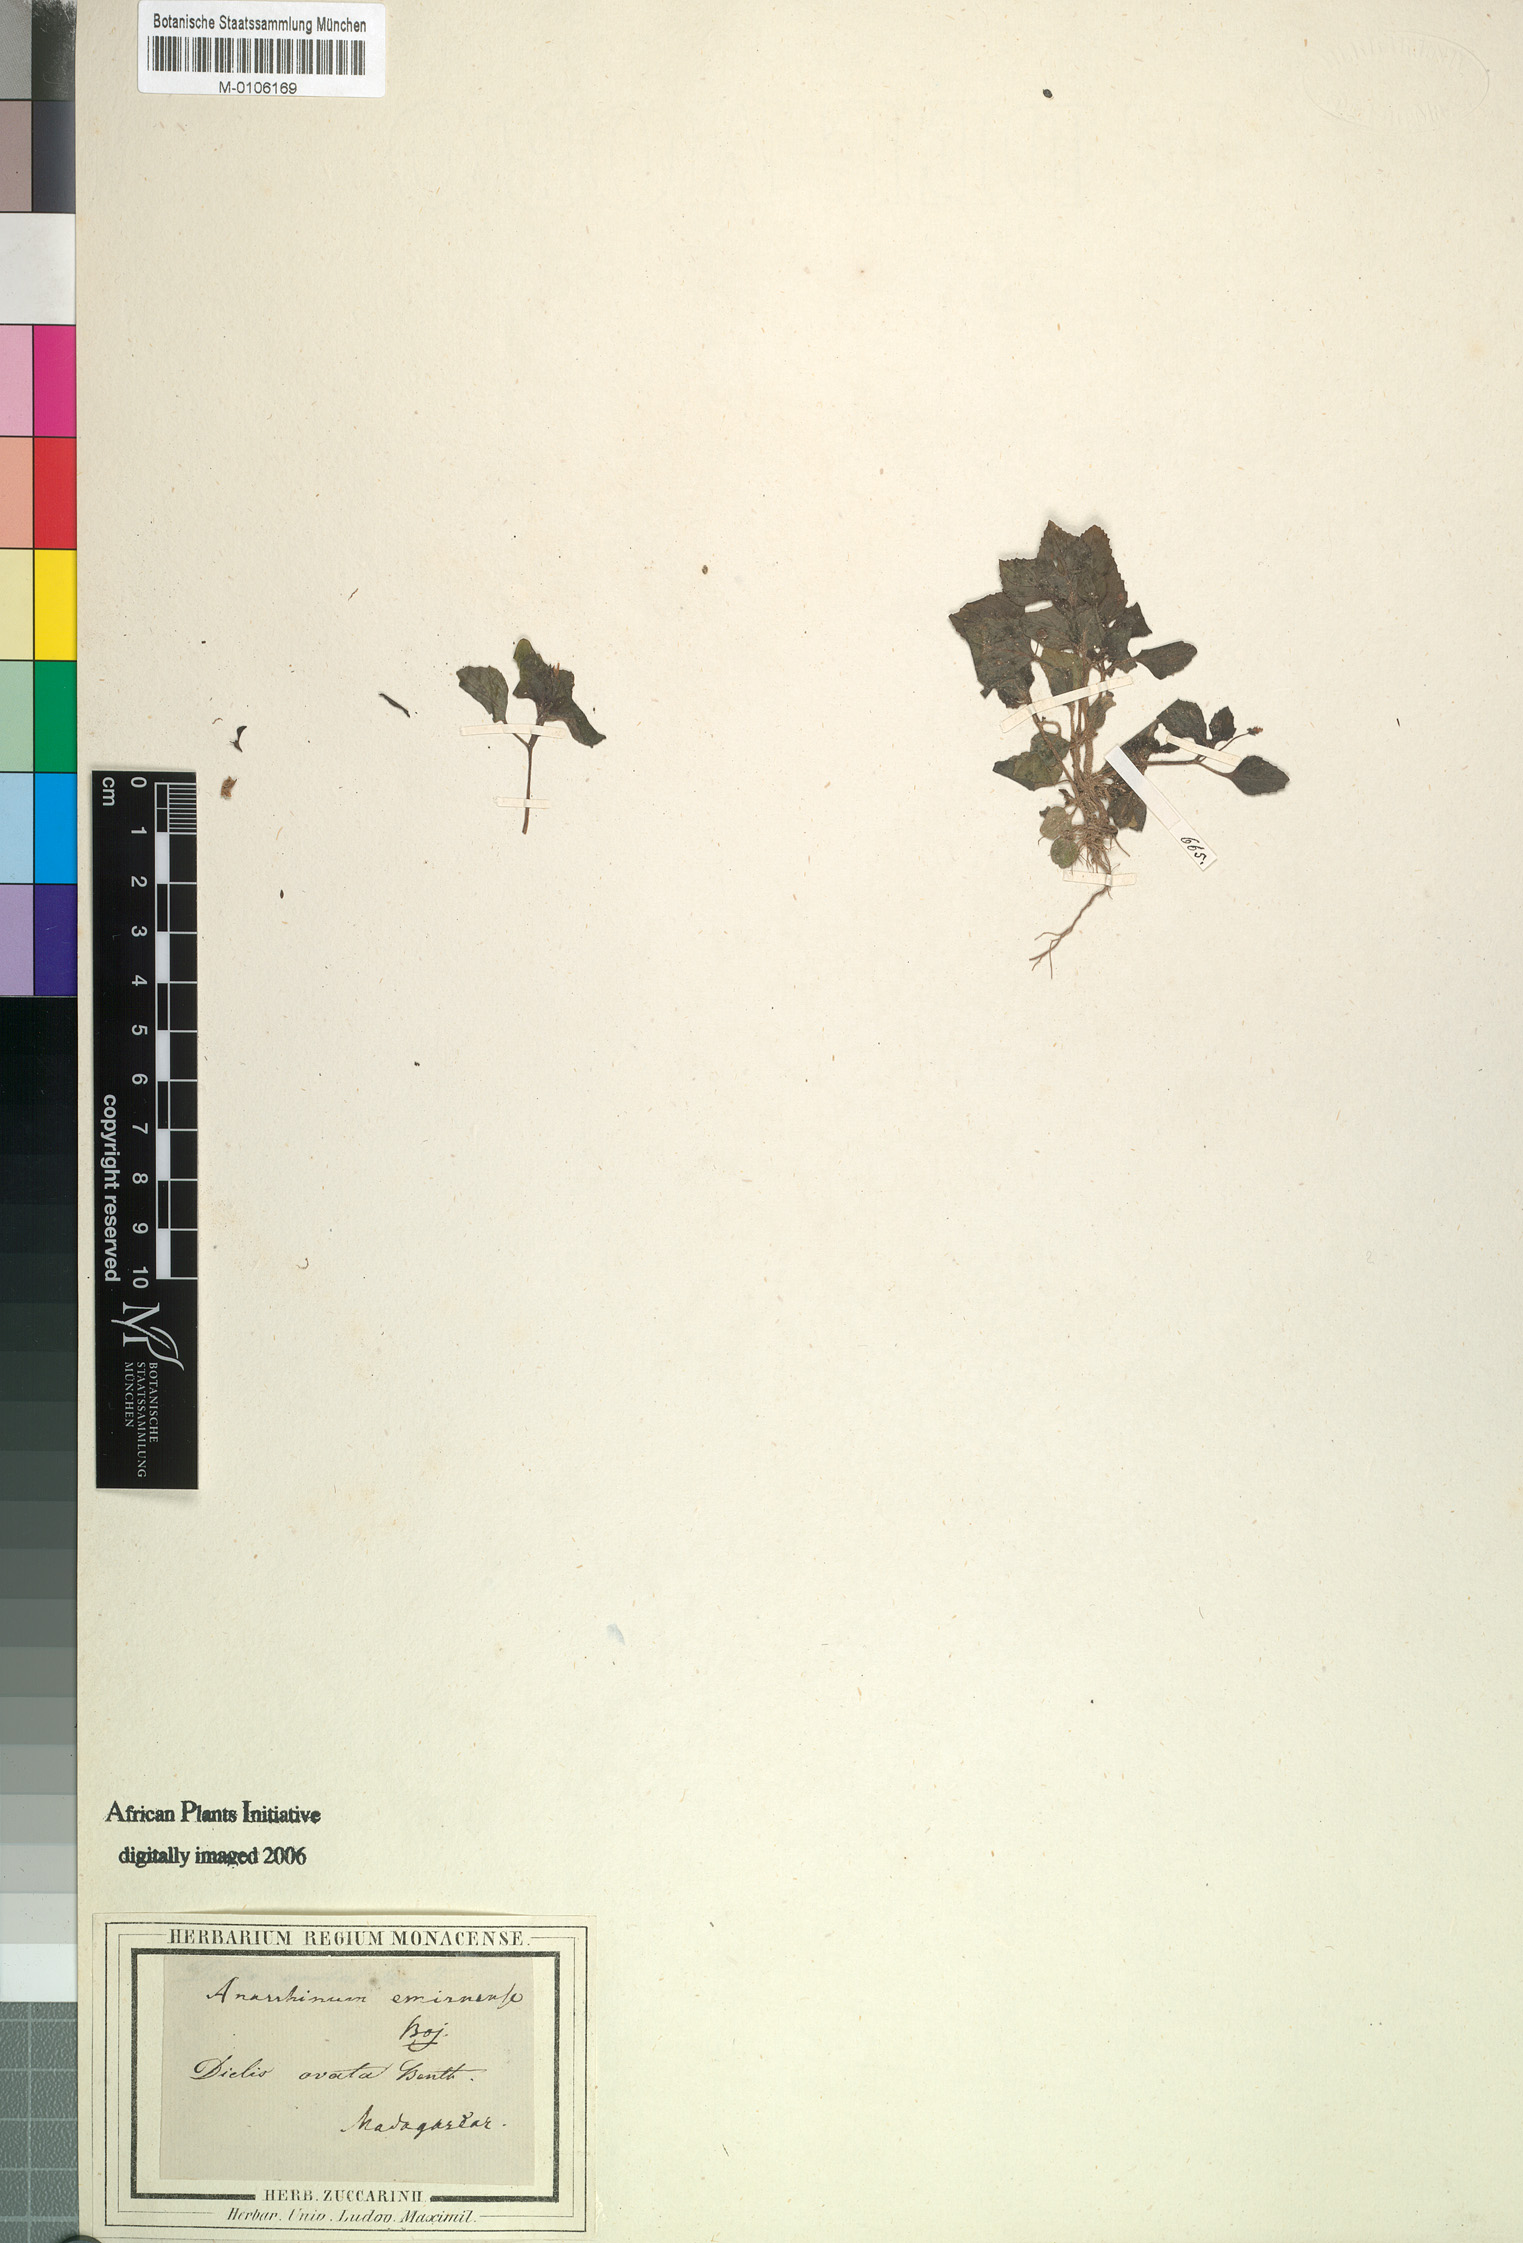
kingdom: Plantae
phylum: Tracheophyta
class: Magnoliopsida
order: Lamiales
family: Scrophulariaceae
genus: Diclis
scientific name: Diclis ovata
